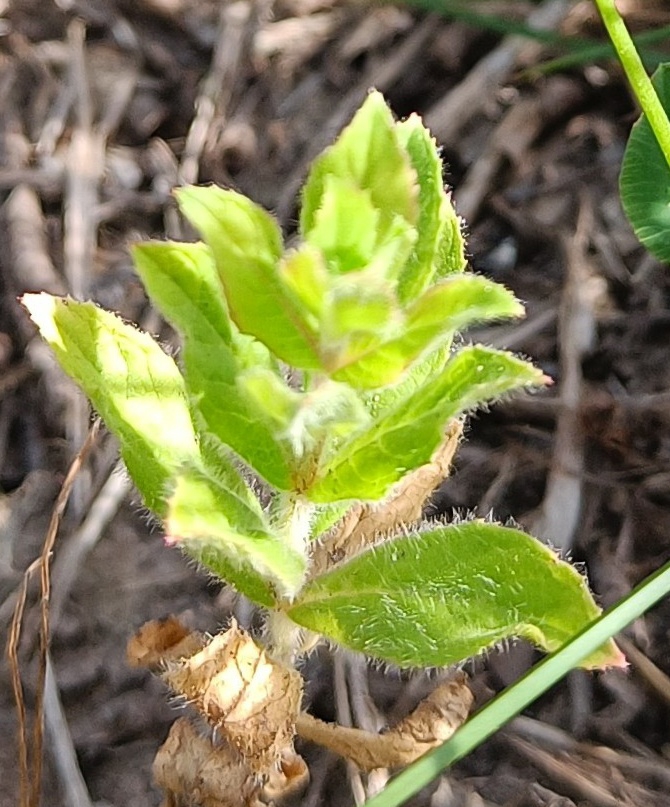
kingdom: Plantae
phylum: Tracheophyta
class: Magnoliopsida
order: Myrtales
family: Onagraceae
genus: Epilobium
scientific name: Epilobium hirsutum
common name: Lådden dueurt
